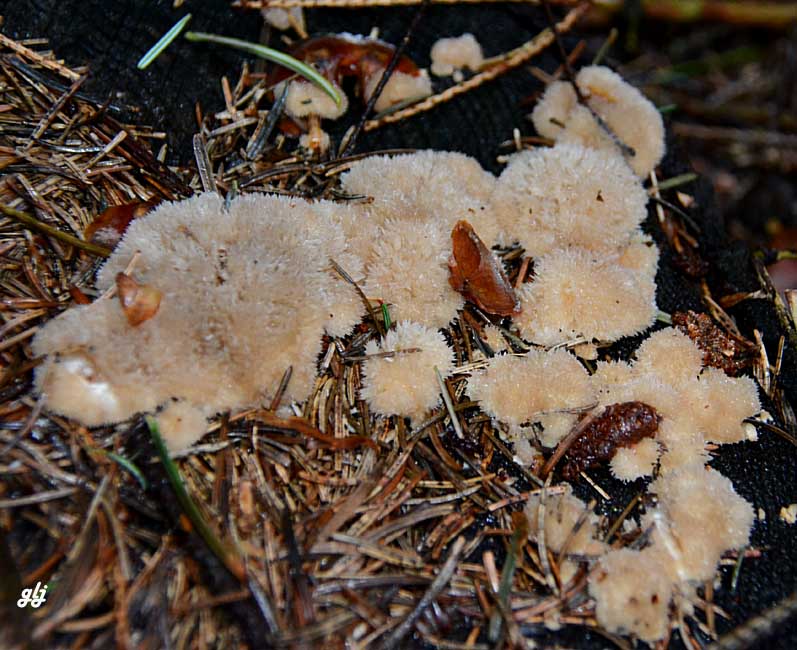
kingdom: Fungi
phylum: Basidiomycota
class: Agaricomycetes
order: Polyporales
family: Dacryobolaceae
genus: Postia
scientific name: Postia ptychogaster
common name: støvende kødporesvamp
